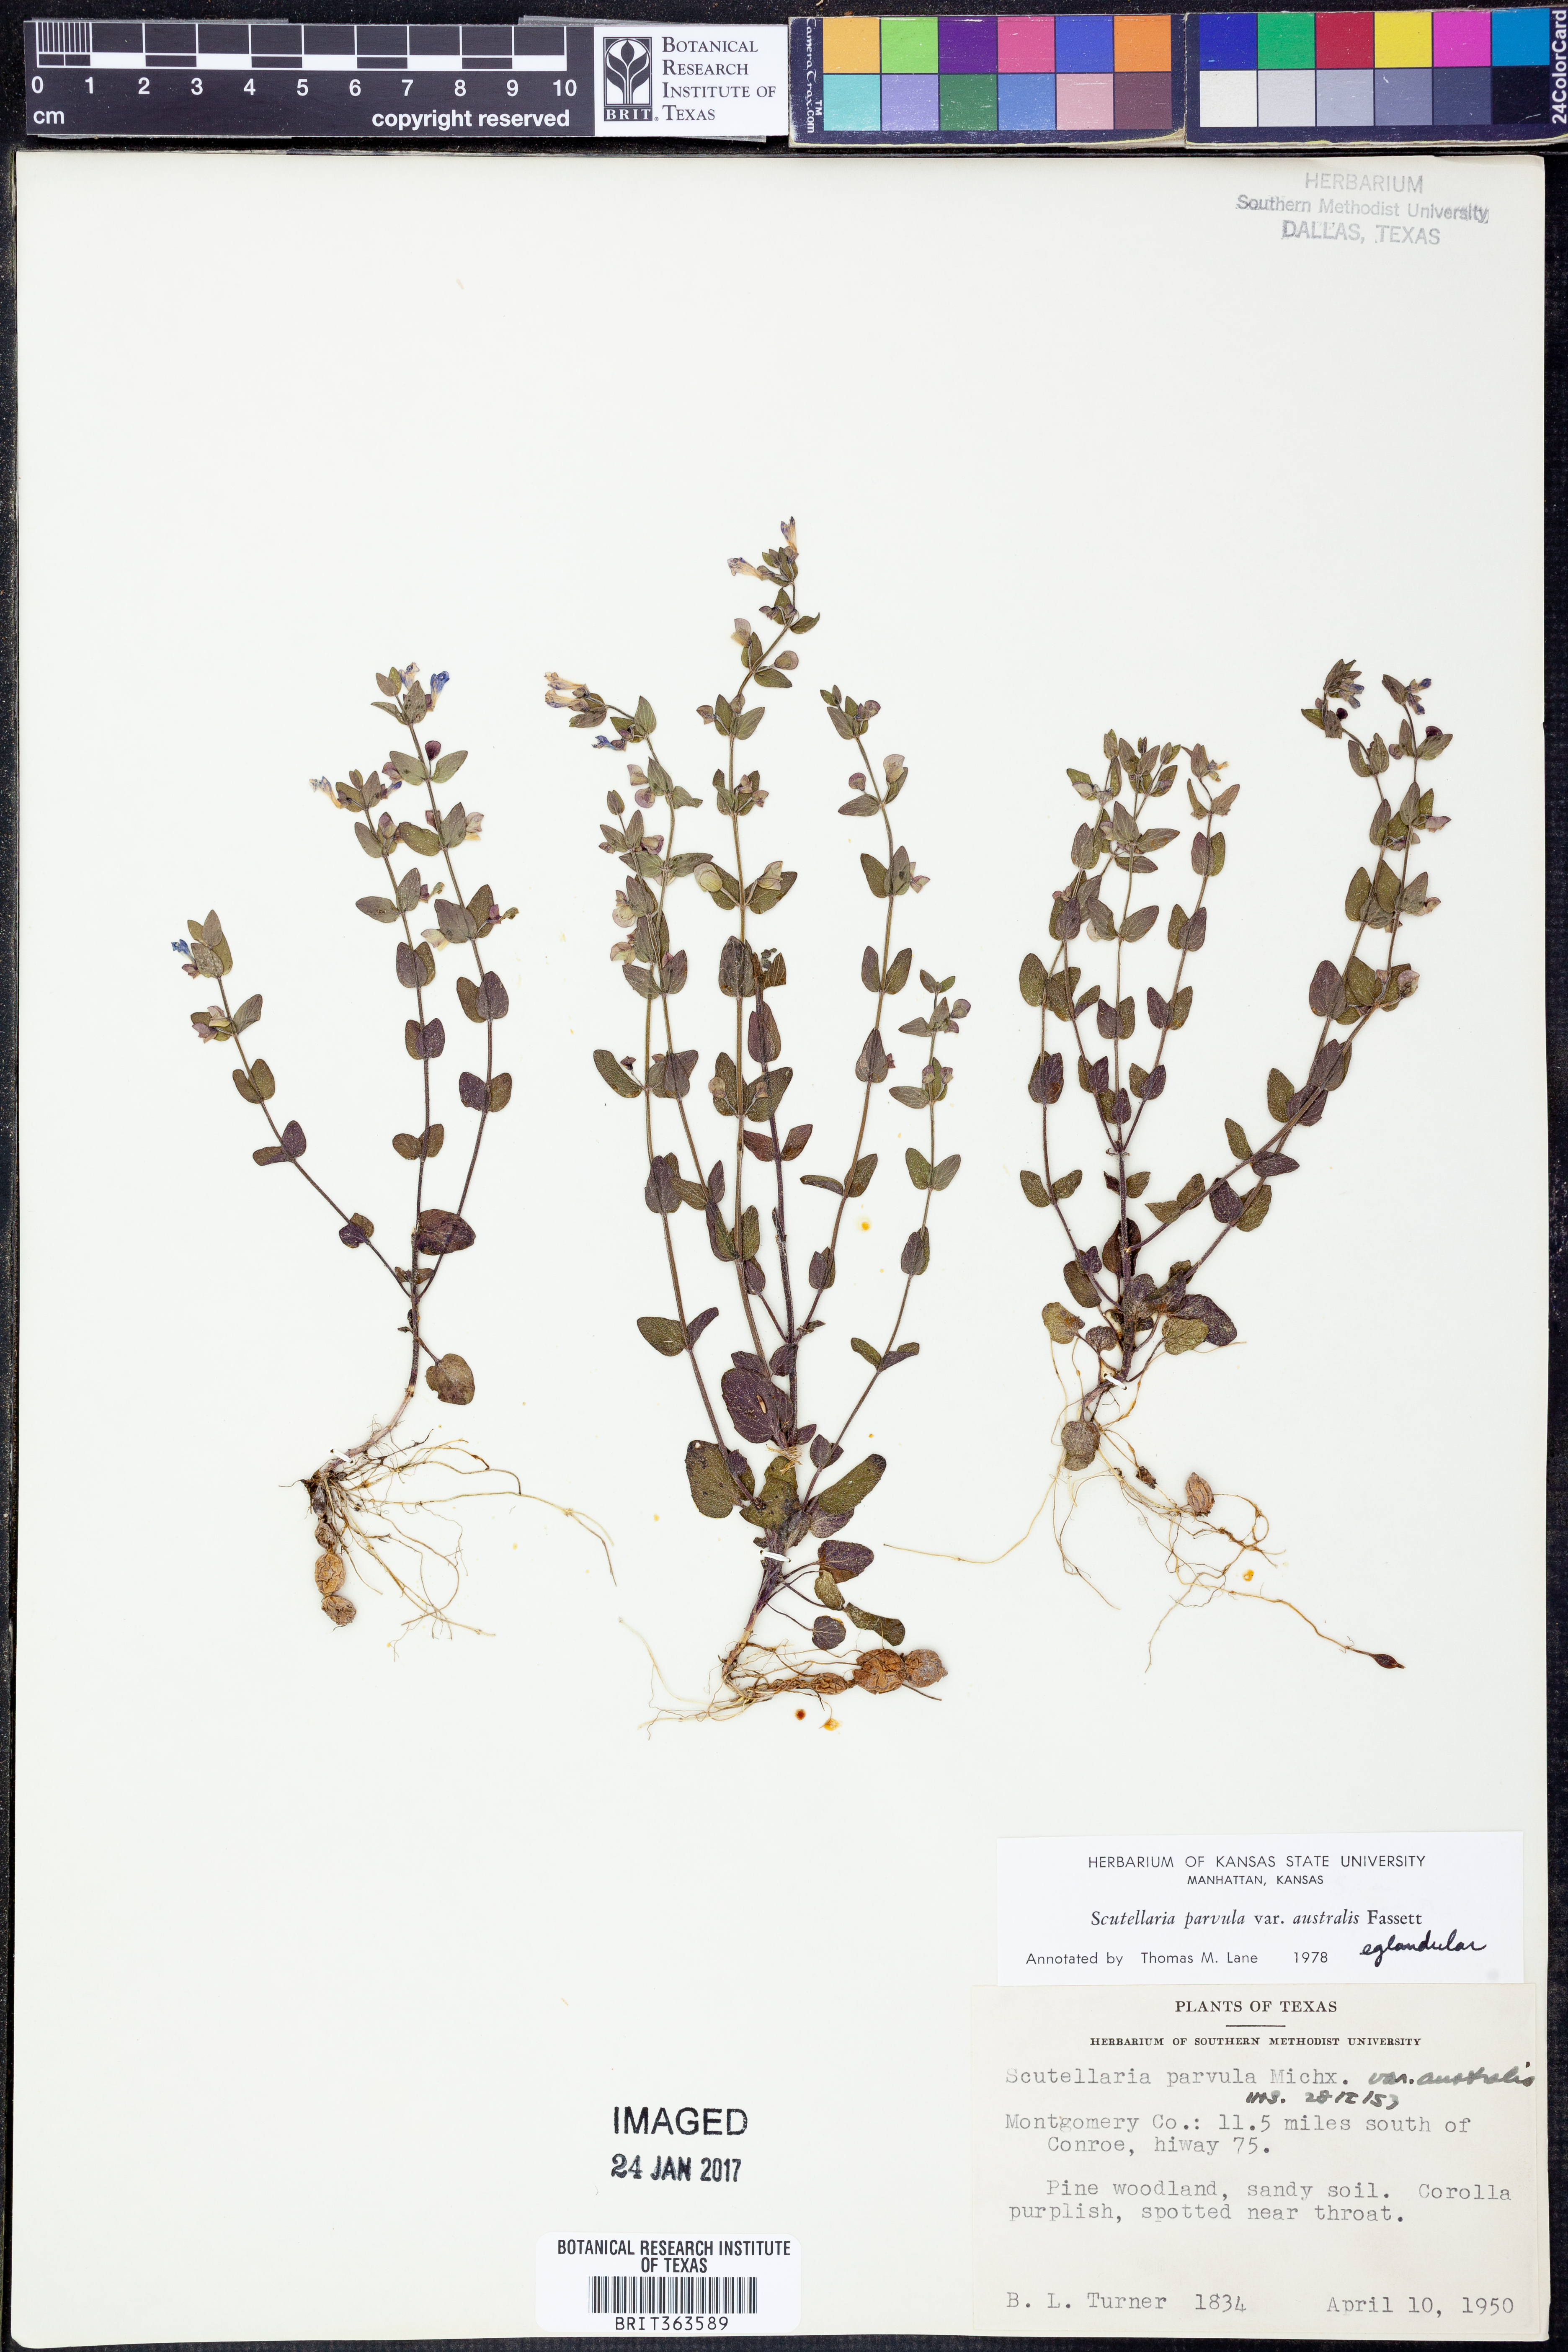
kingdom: Plantae
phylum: Tracheophyta
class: Magnoliopsida
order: Lamiales
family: Lamiaceae
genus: Scutellaria
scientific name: Scutellaria parvula
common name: Little scullcap
